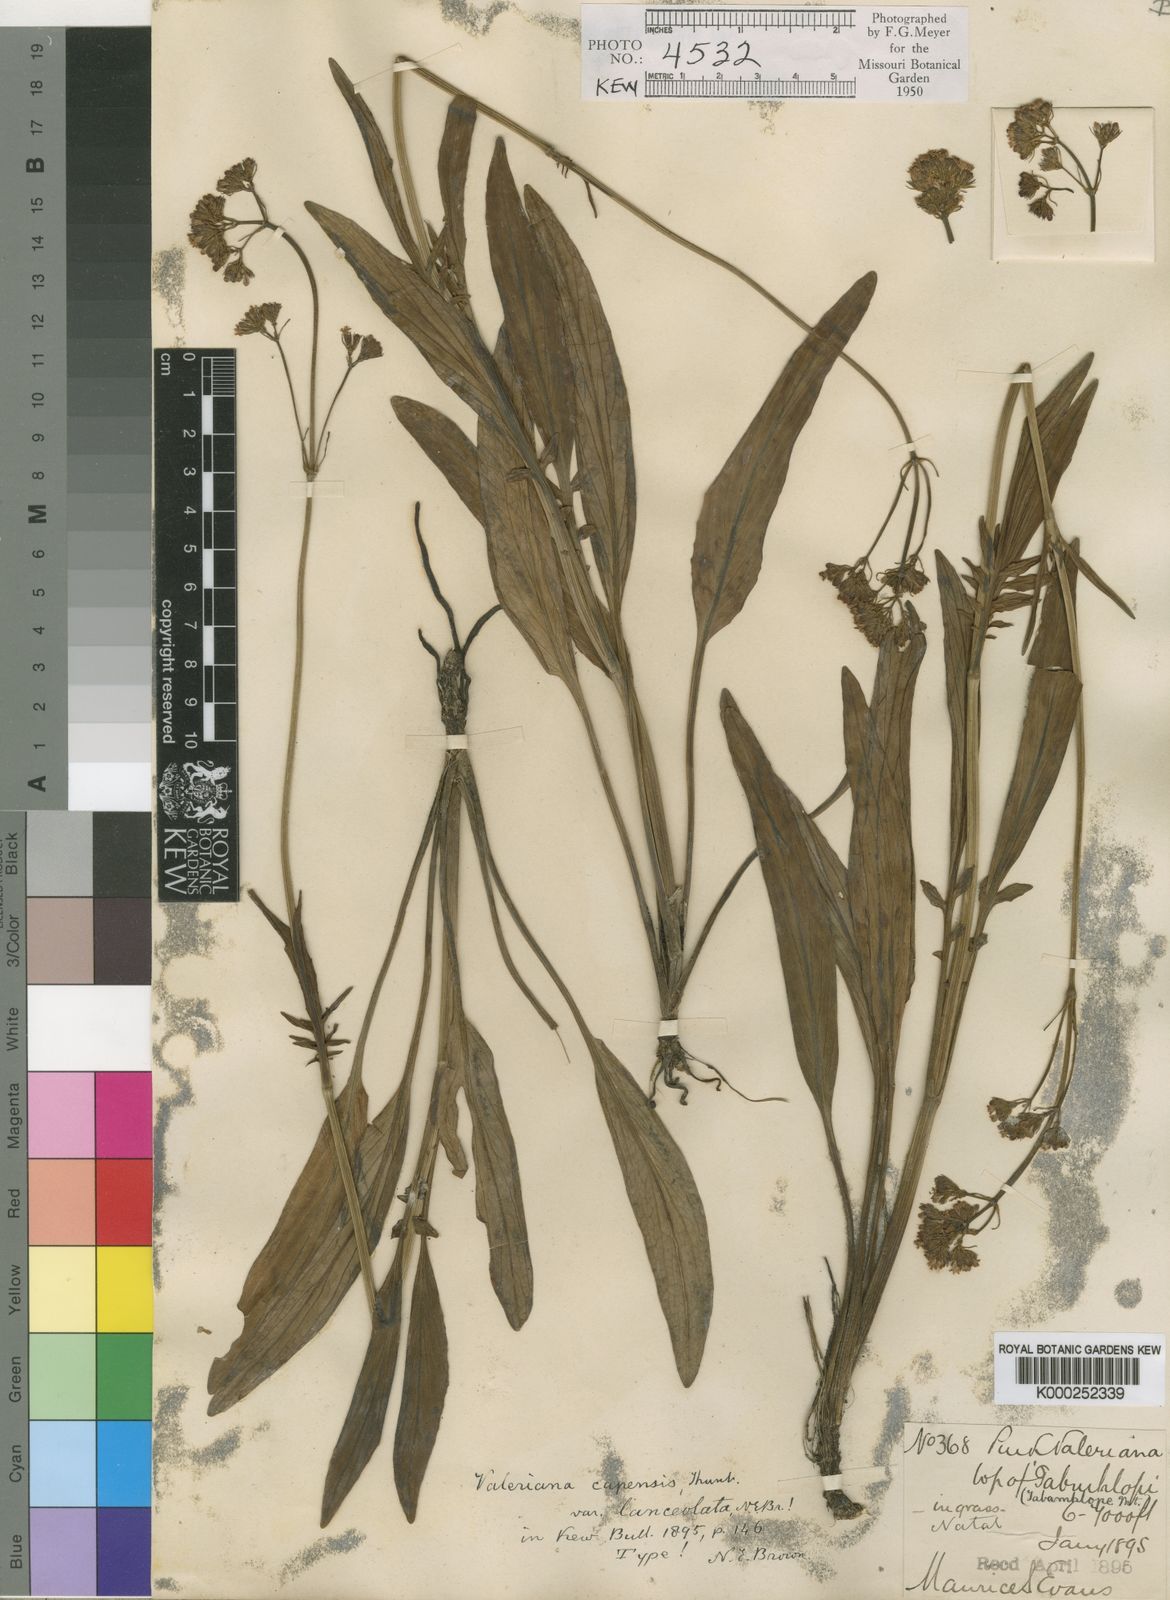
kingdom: Plantae
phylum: Tracheophyta
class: Magnoliopsida
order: Dipsacales
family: Caprifoliaceae
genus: Valeriana
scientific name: Valeriana capensis
